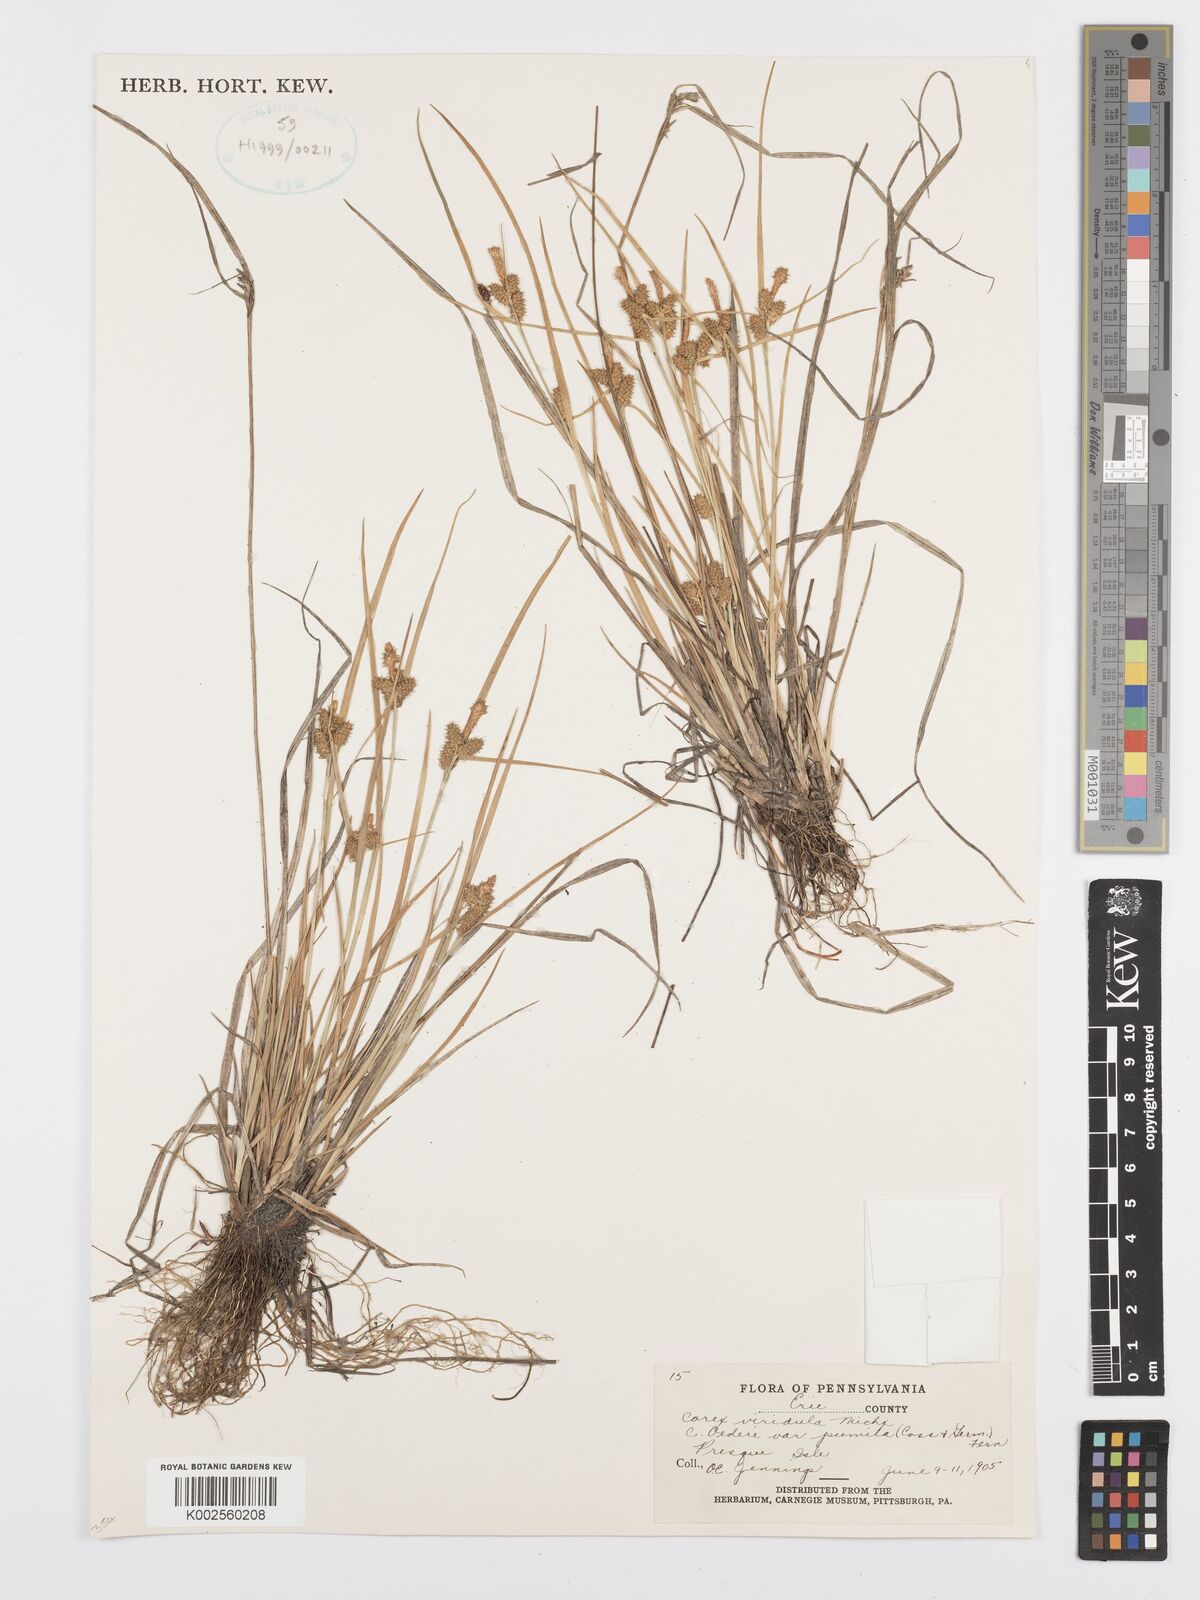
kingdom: Plantae
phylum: Tracheophyta
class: Liliopsida
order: Poales
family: Cyperaceae
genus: Carex
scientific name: Carex oederi
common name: Common & small-fruited yellow-sedge
